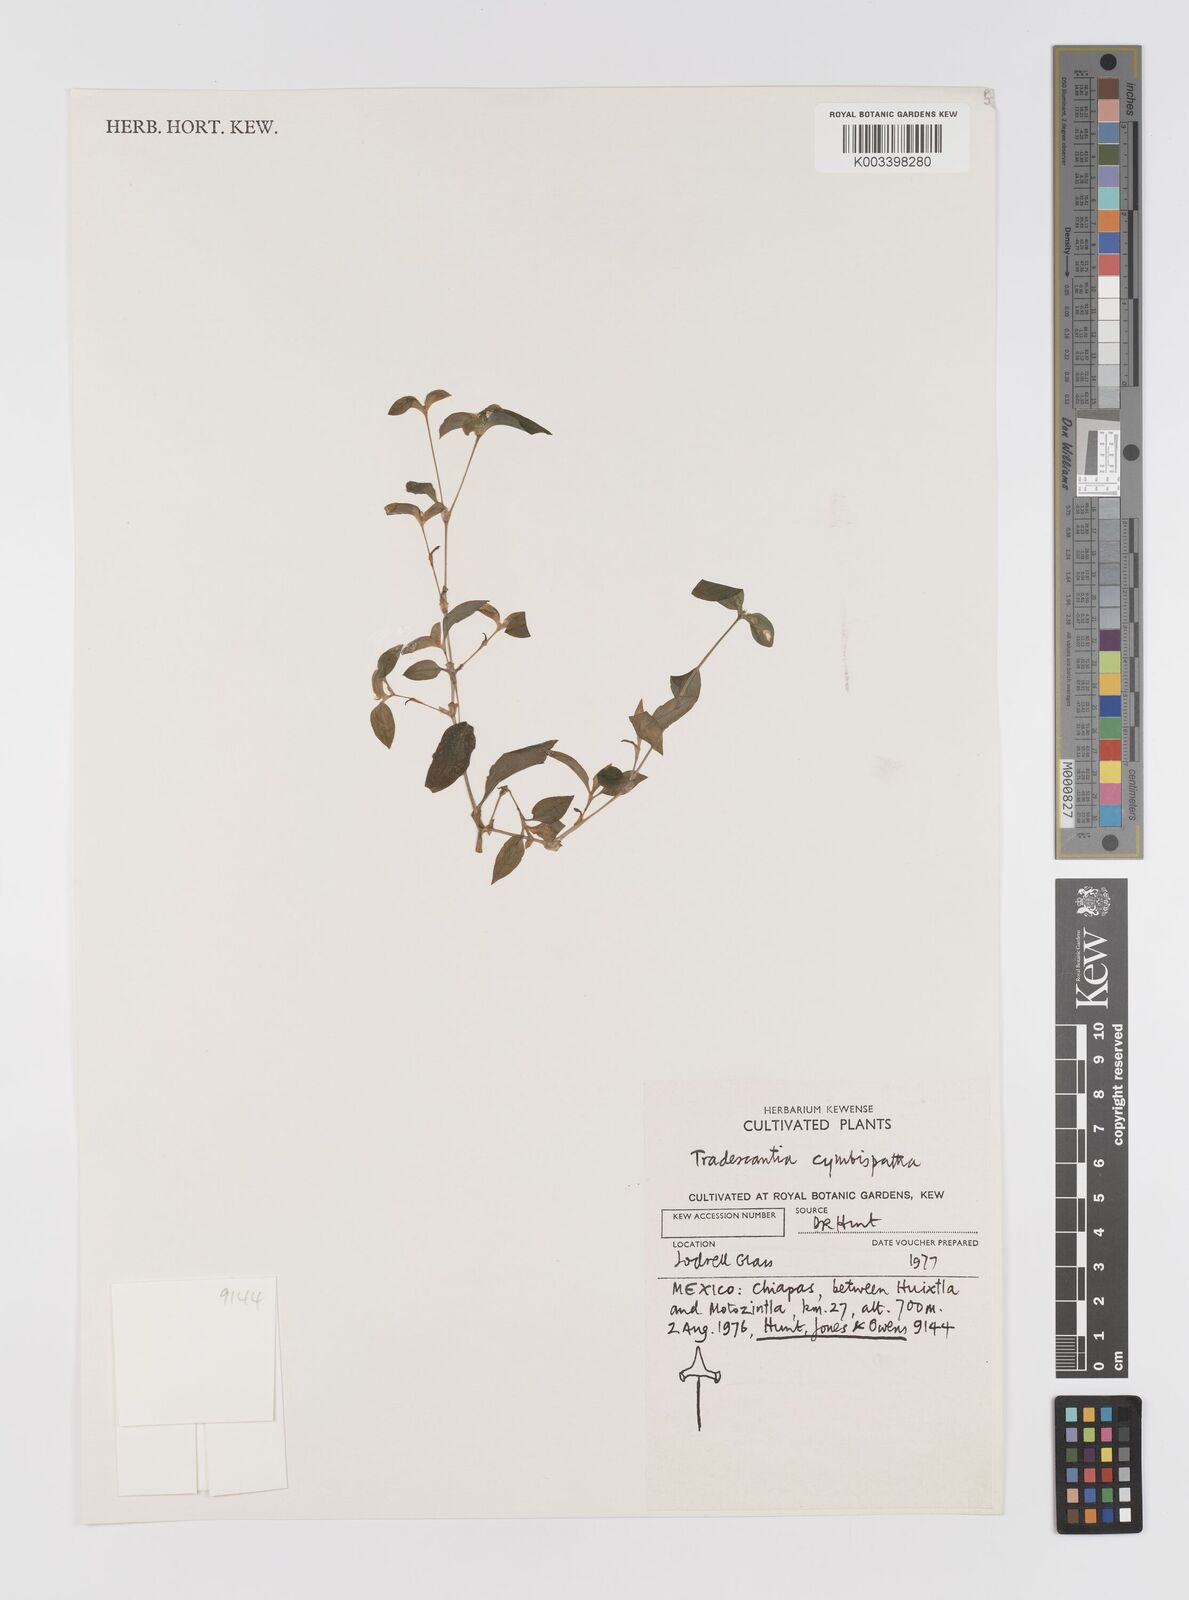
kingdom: Plantae
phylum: Tracheophyta
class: Liliopsida
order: Commelinales
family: Commelinaceae
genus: Tradescantia
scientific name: Tradescantia gracillima
